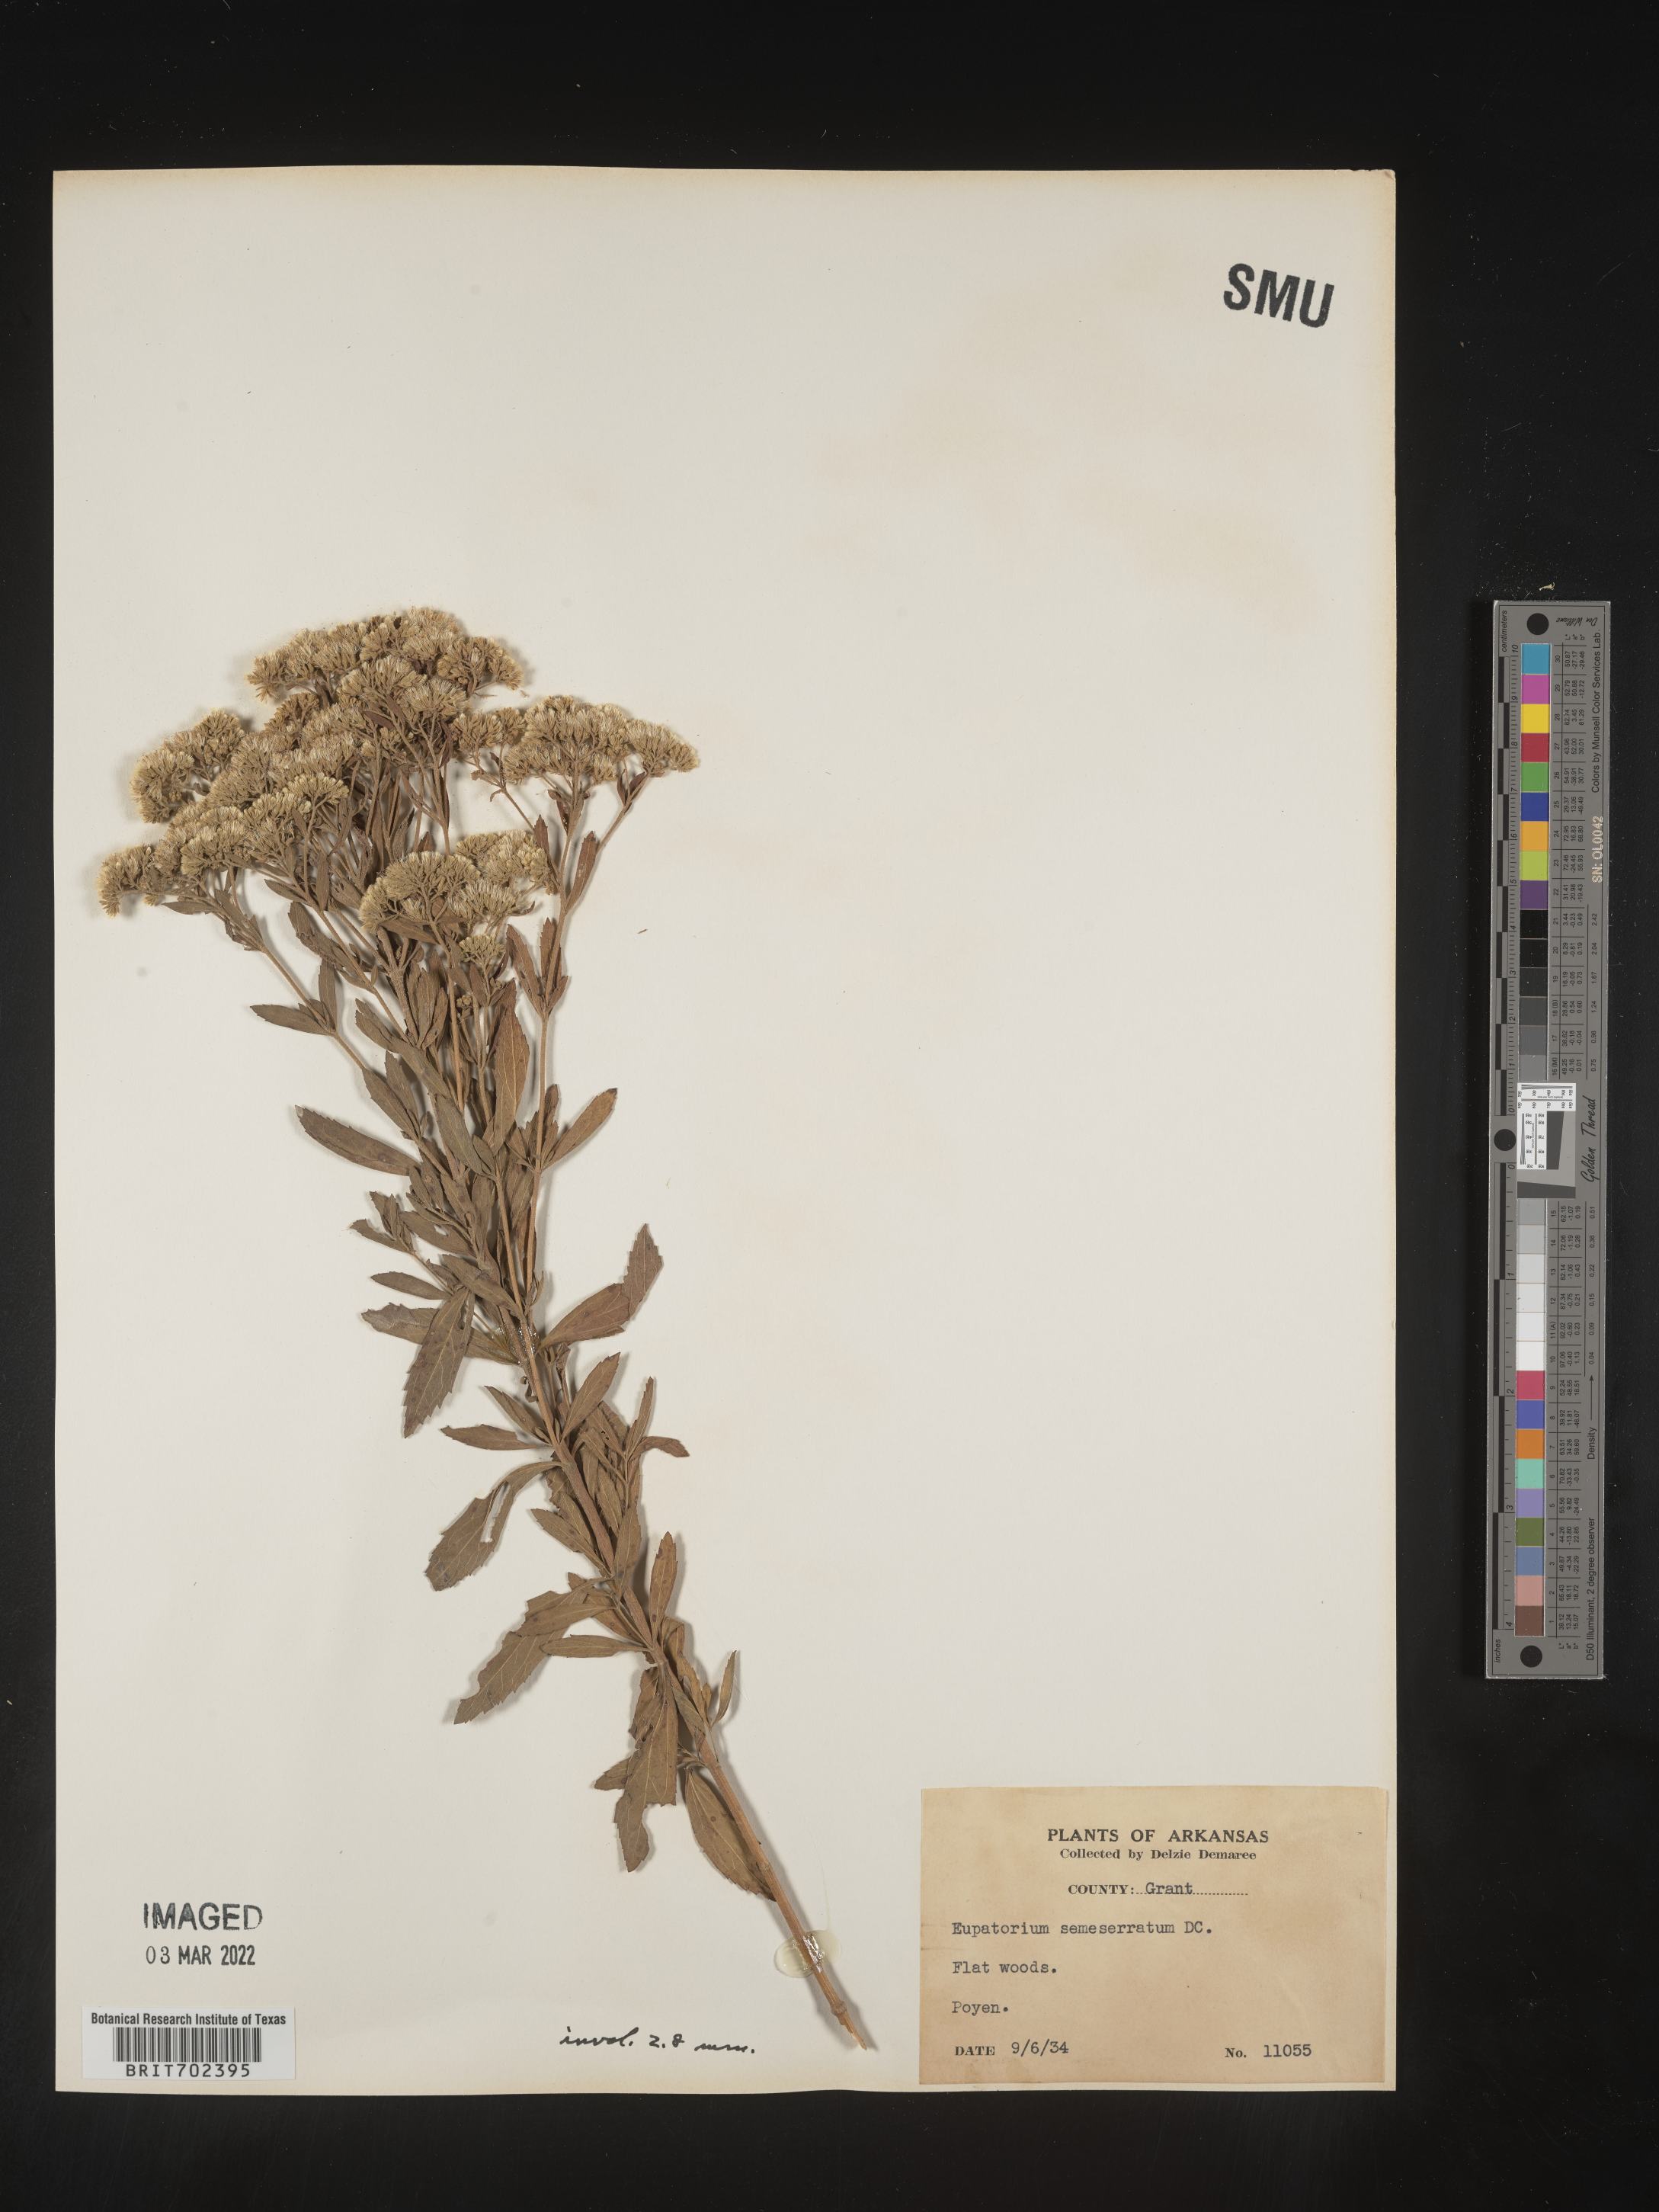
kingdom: Plantae
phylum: Tracheophyta
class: Magnoliopsida
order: Asterales
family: Asteraceae
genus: Eupatorium
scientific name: Eupatorium semiserratum
